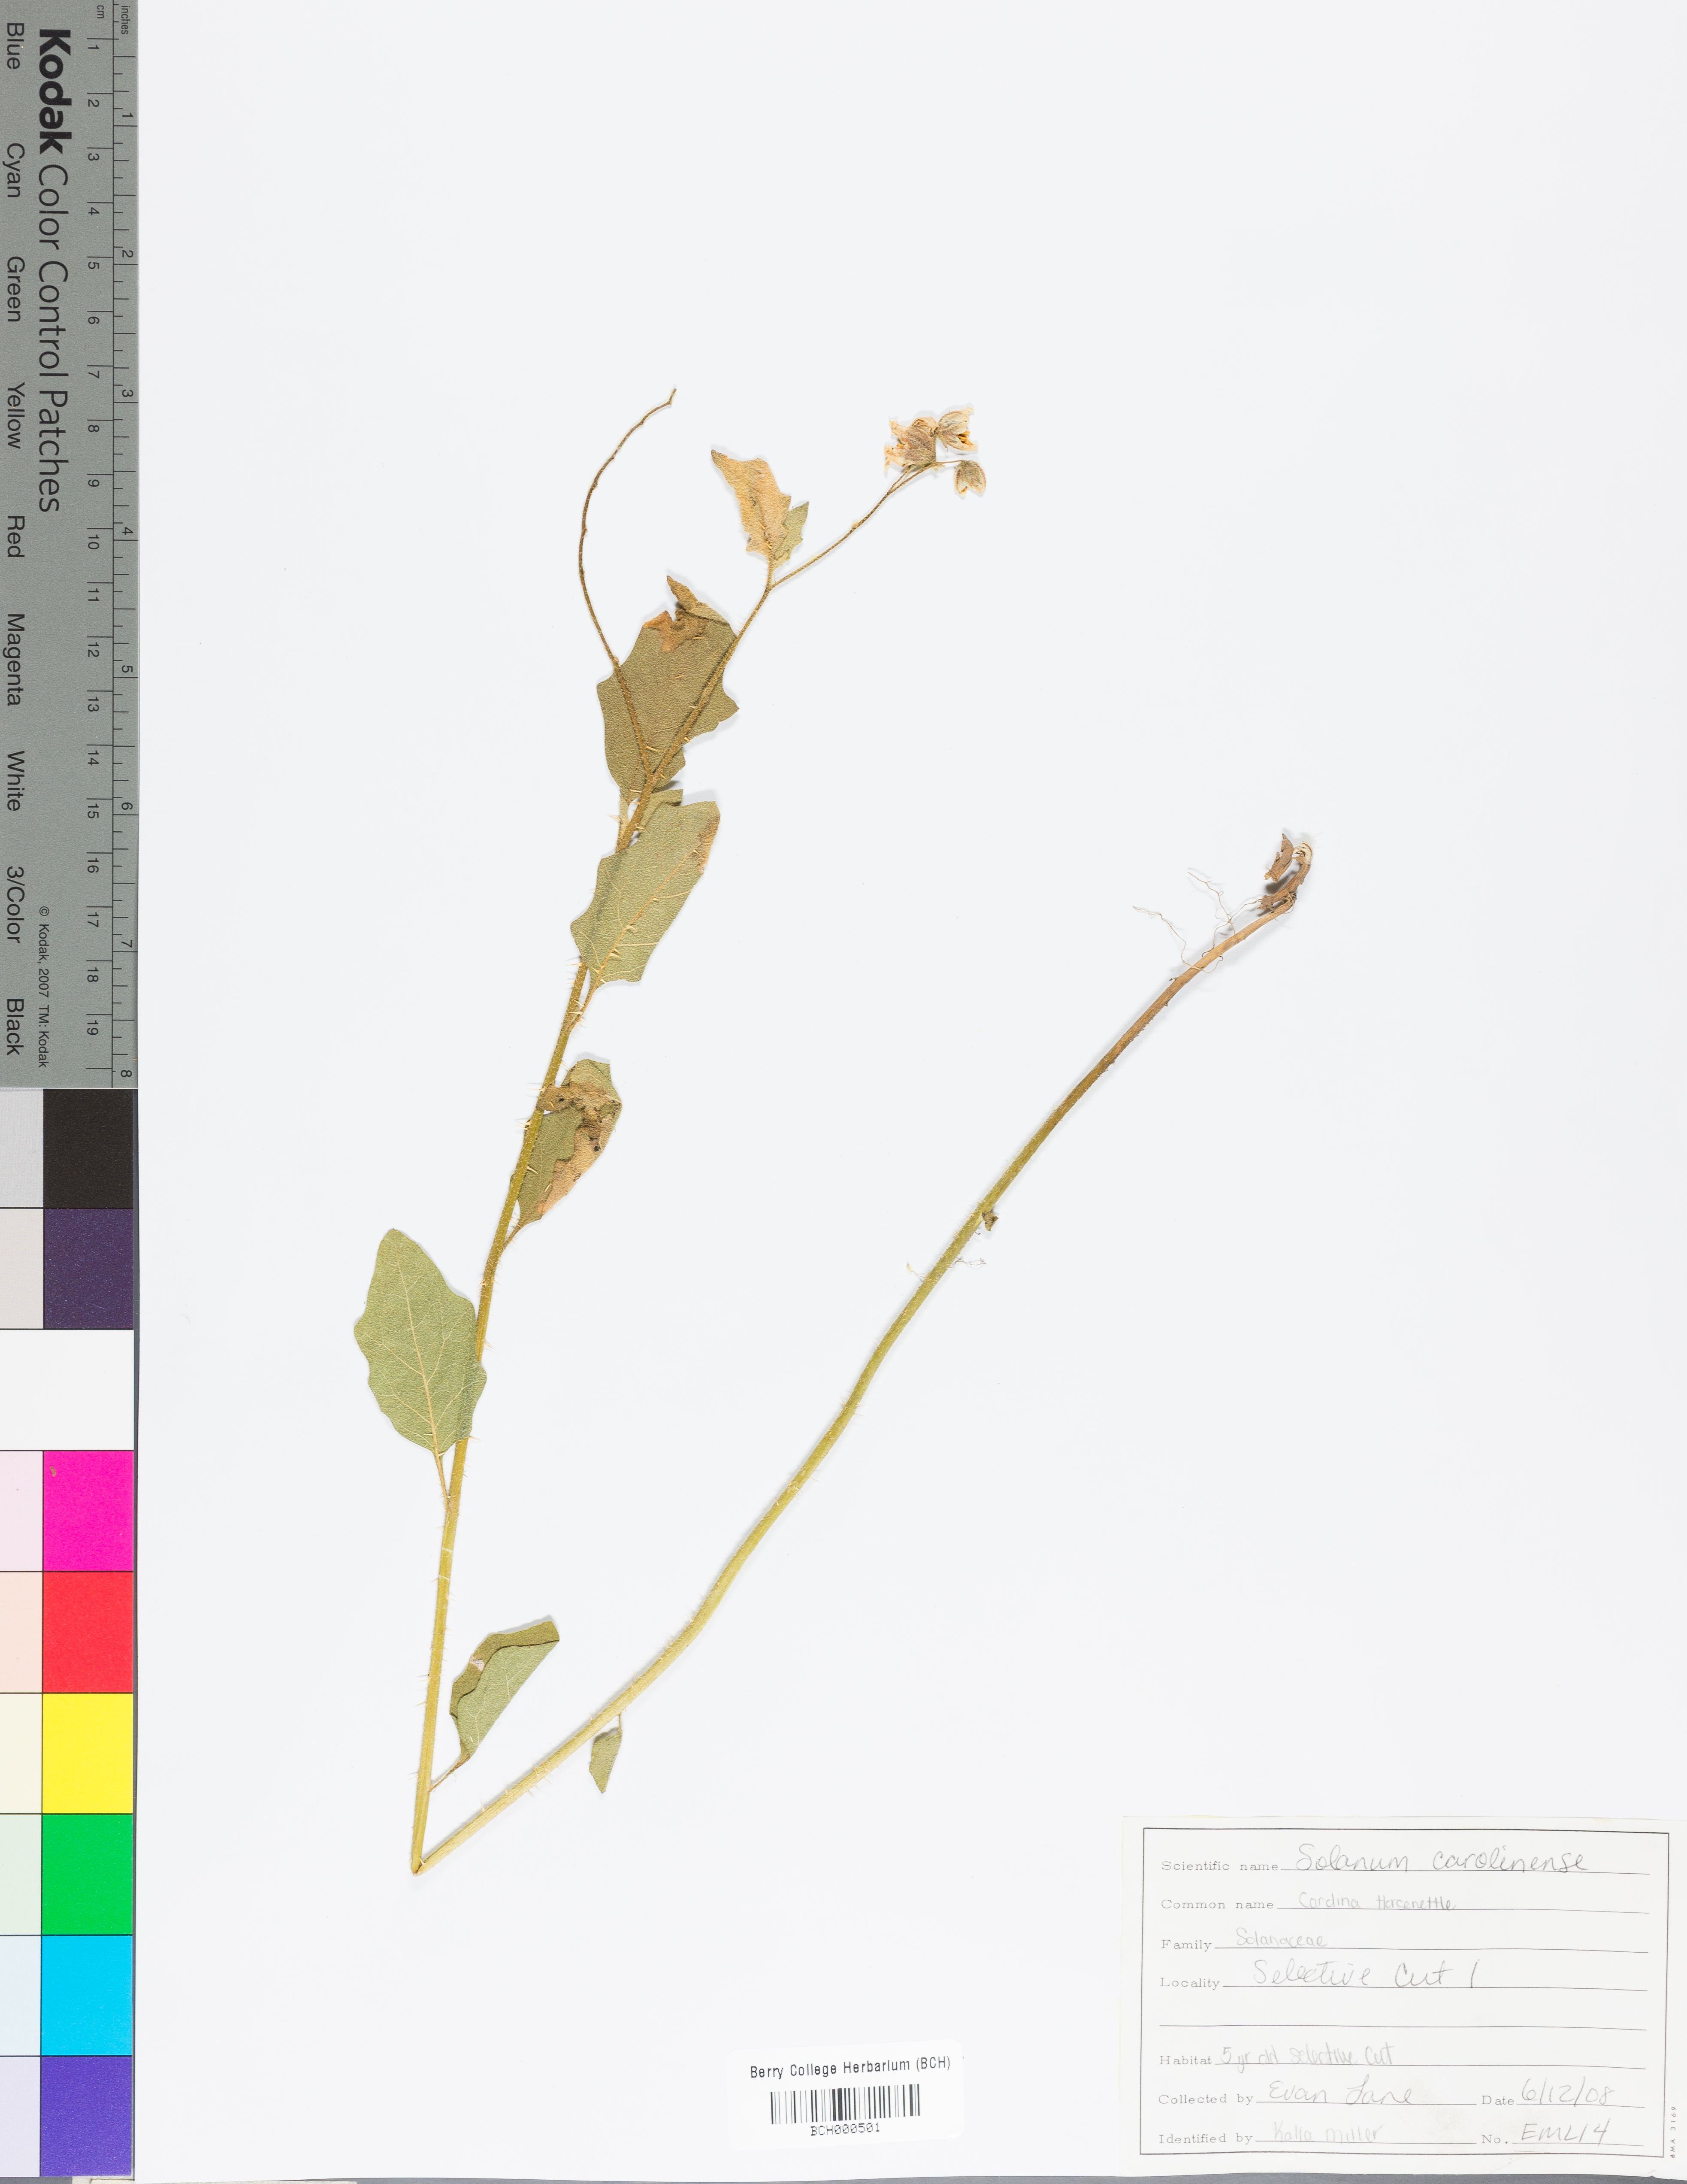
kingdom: Plantae
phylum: Tracheophyta
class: Magnoliopsida
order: Solanales
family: Solanaceae
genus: Solanum
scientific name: Solanum carolinense
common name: Horse-nettle
